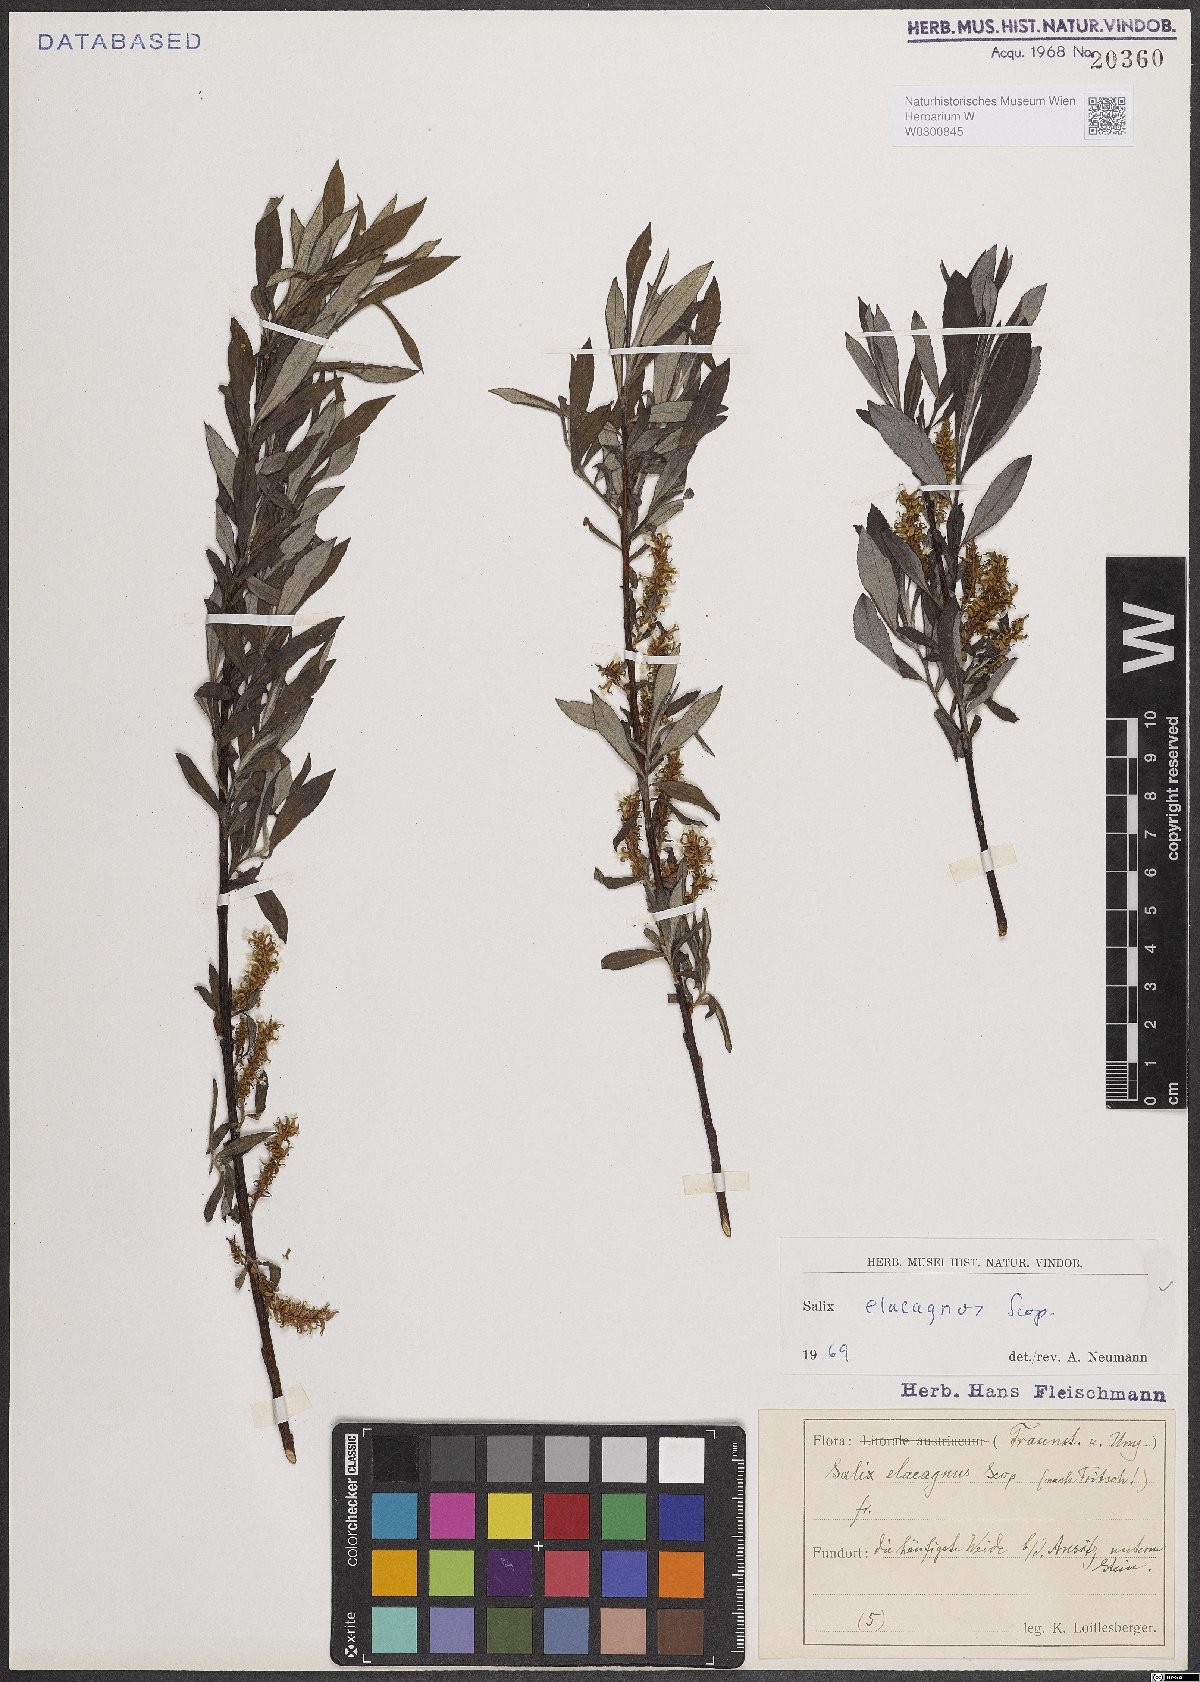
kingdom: Plantae
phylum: Tracheophyta
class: Magnoliopsida
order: Malpighiales
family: Salicaceae
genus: Salix
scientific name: Salix eleagnos
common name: Elaeagnus willow
